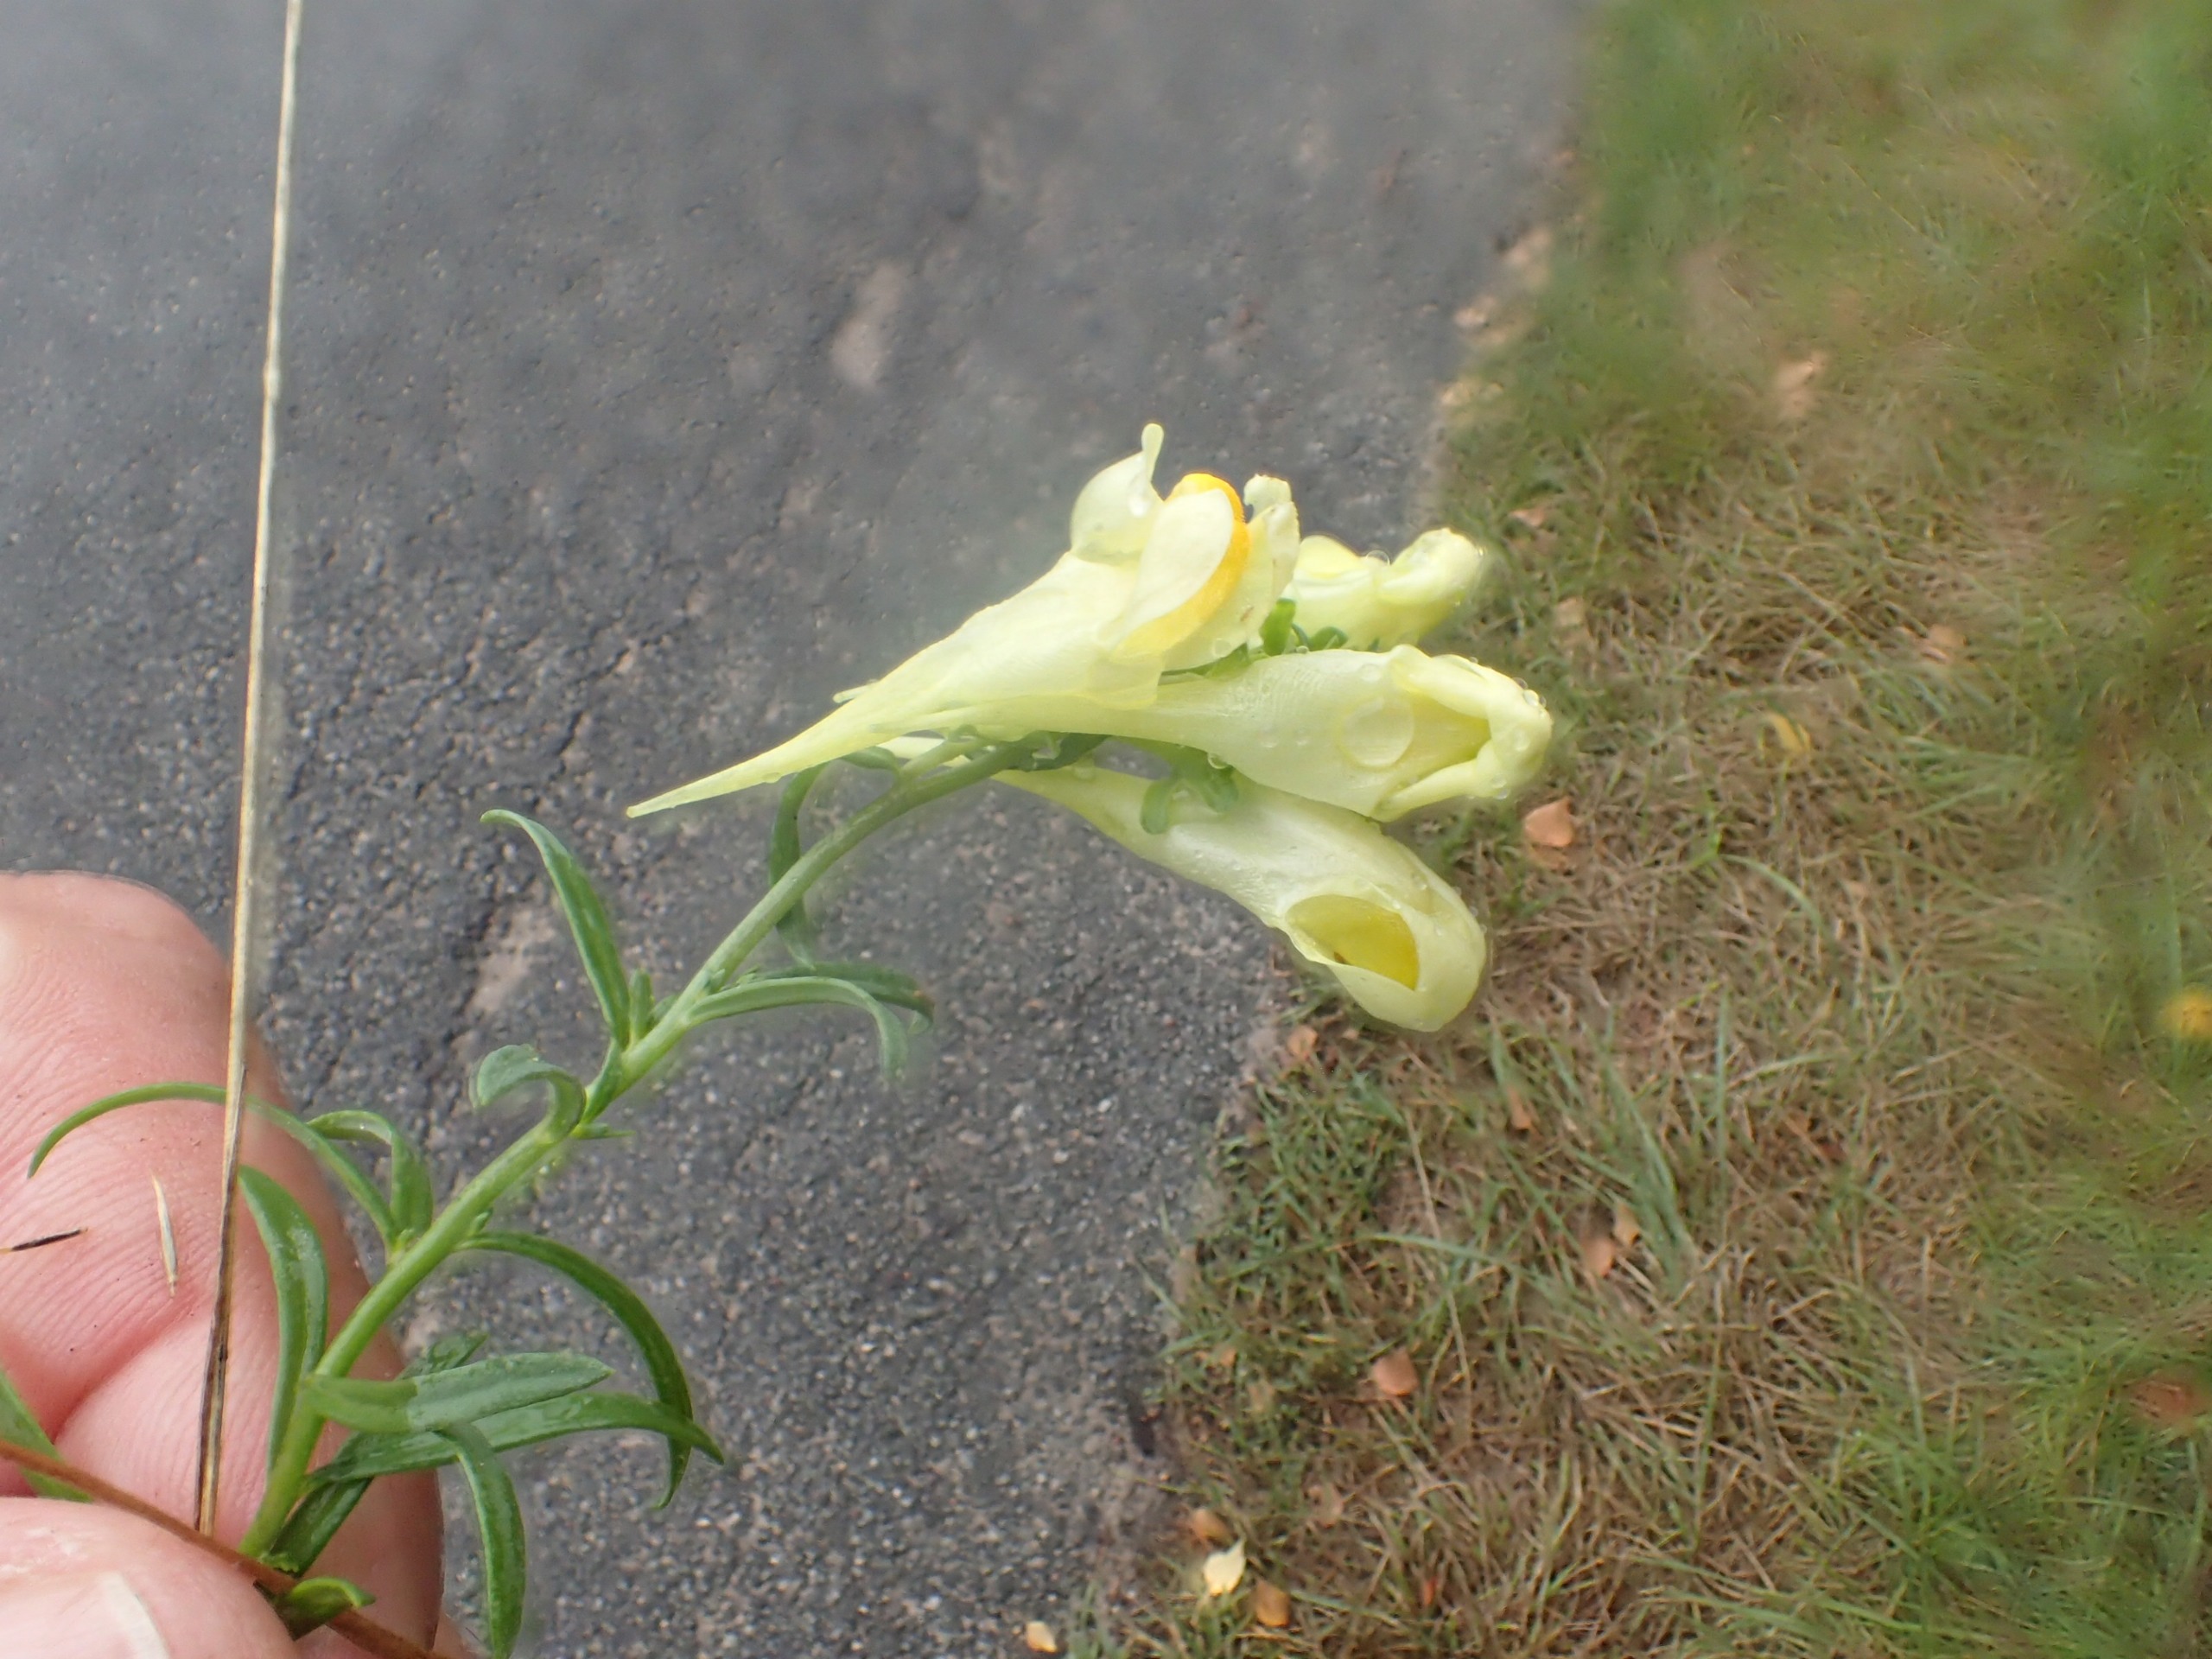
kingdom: Plantae
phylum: Tracheophyta
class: Magnoliopsida
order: Lamiales
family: Plantaginaceae
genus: Linaria
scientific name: Linaria vulgaris
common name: Almindelig torskemund
